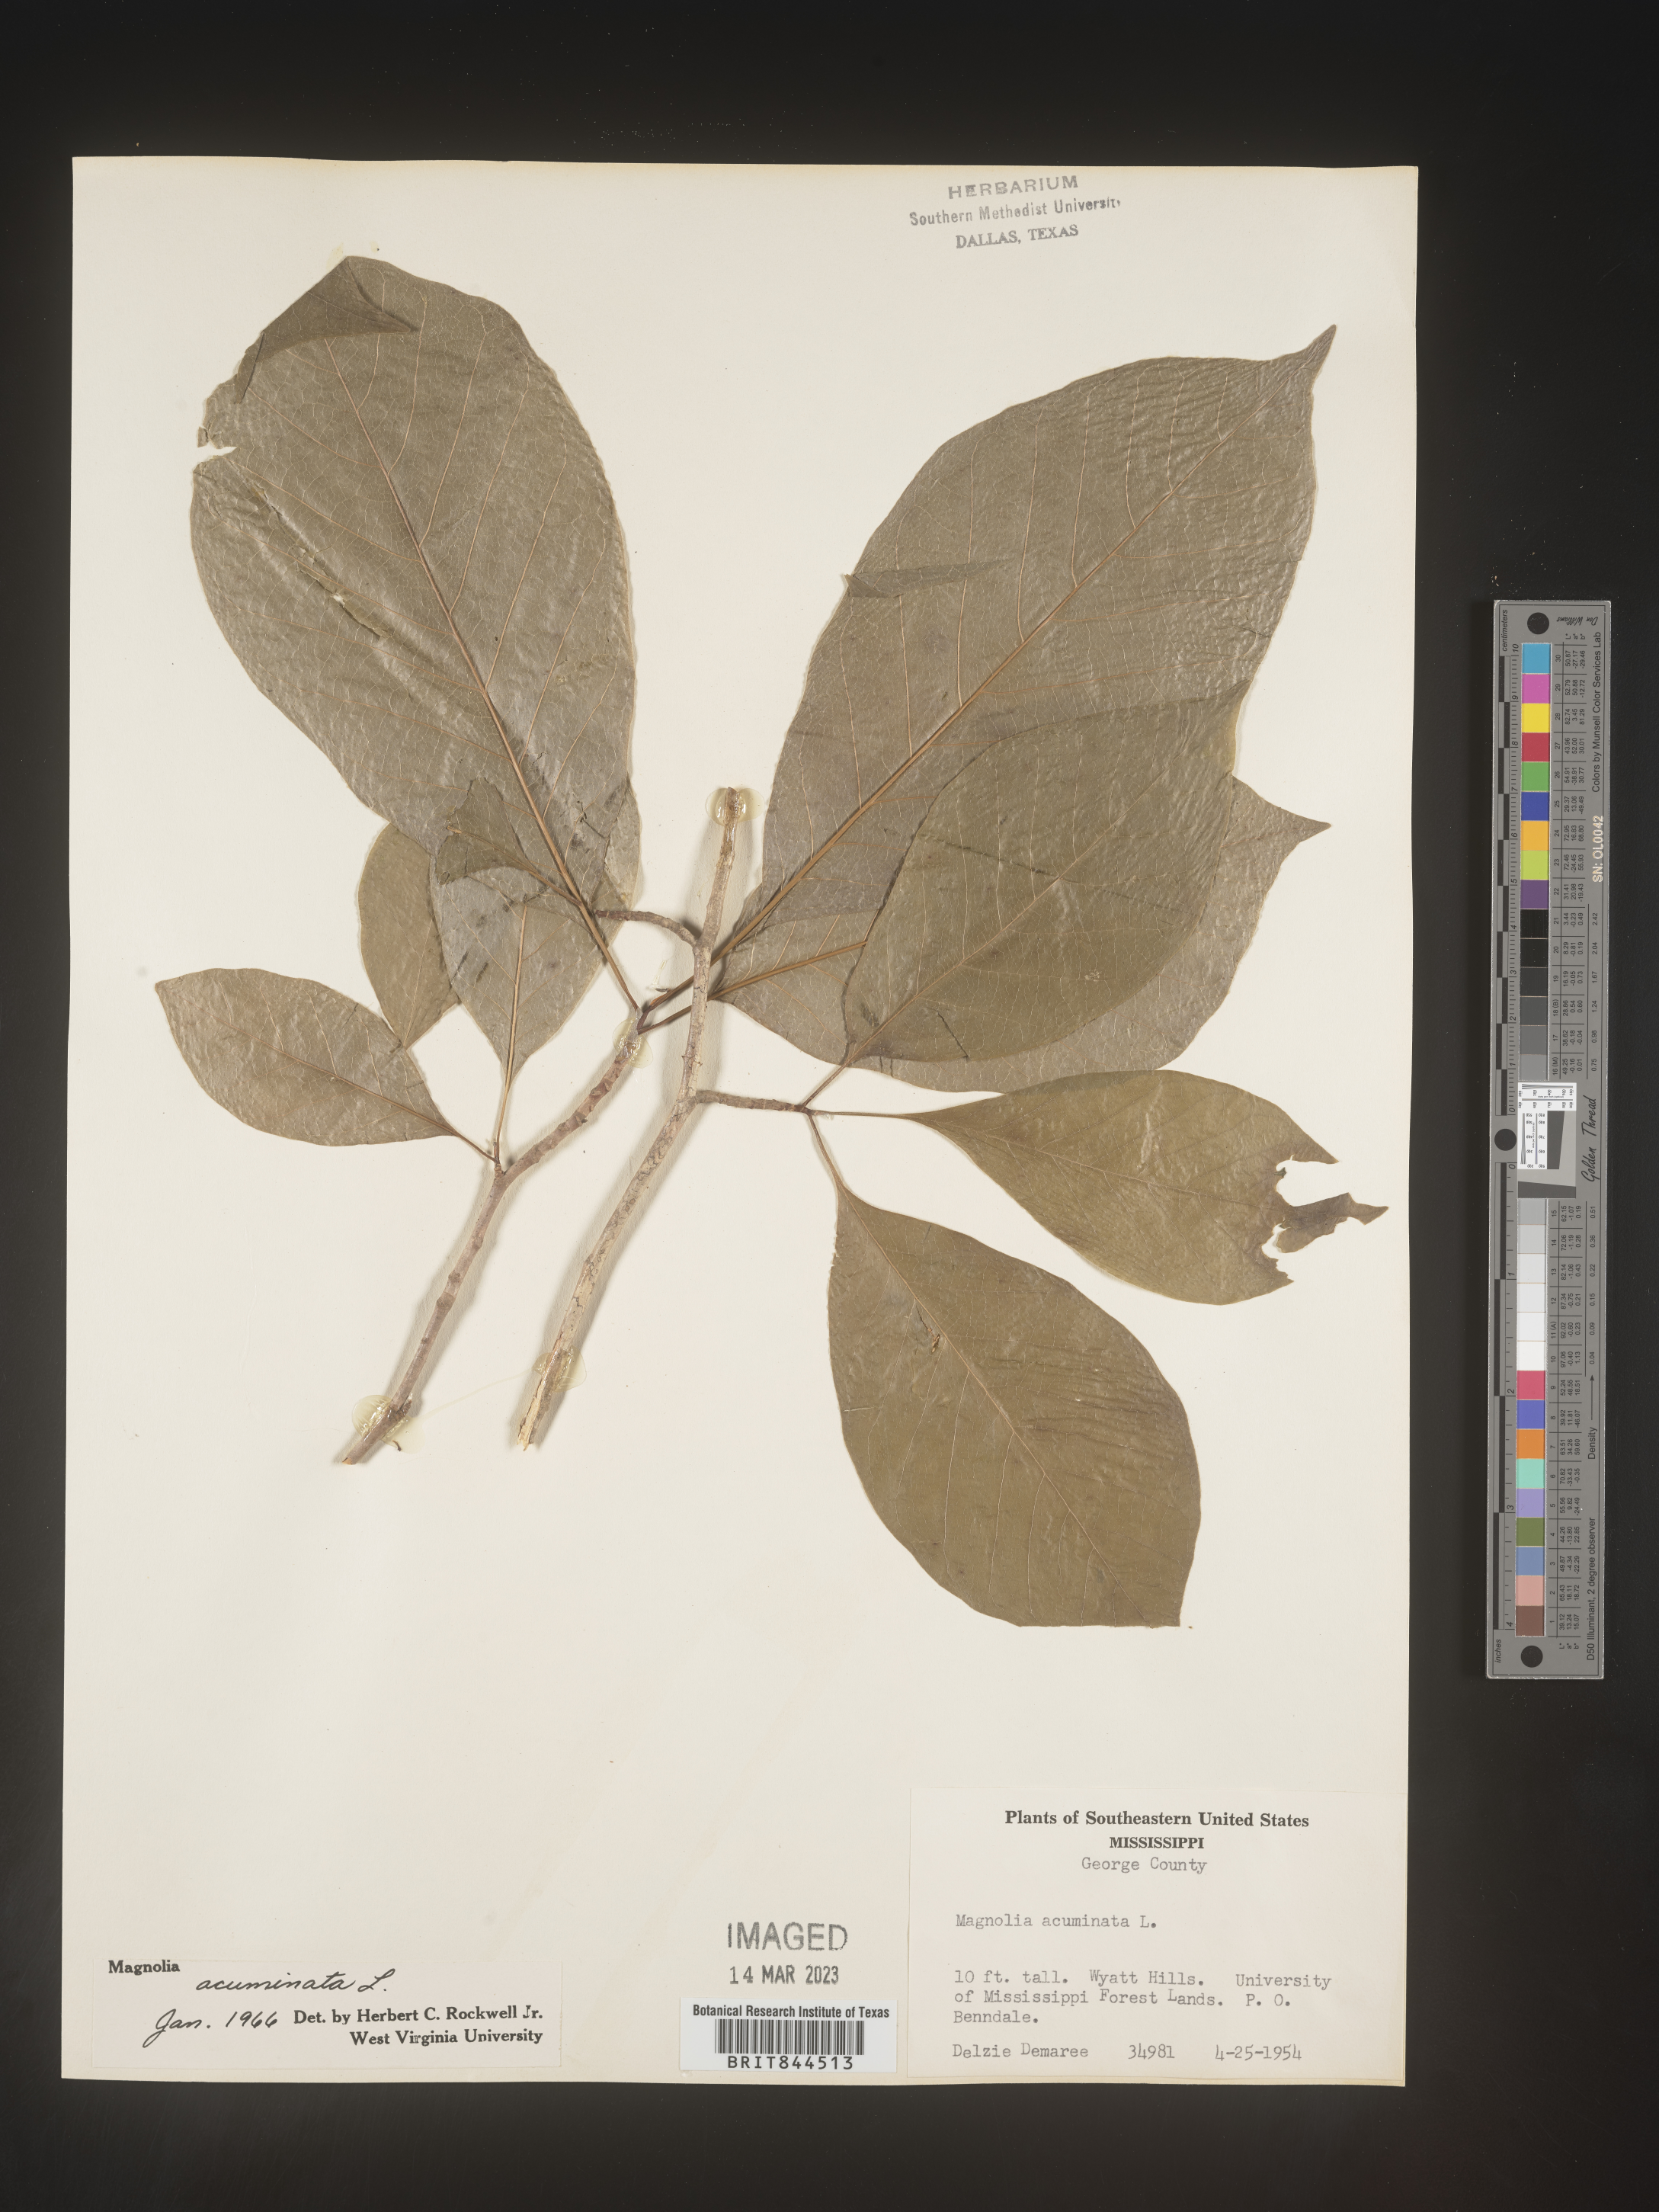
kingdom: Plantae
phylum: Tracheophyta
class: Magnoliopsida
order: Magnoliales
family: Magnoliaceae
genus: Magnolia
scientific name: Magnolia acuminata
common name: Cucumber magnolia
